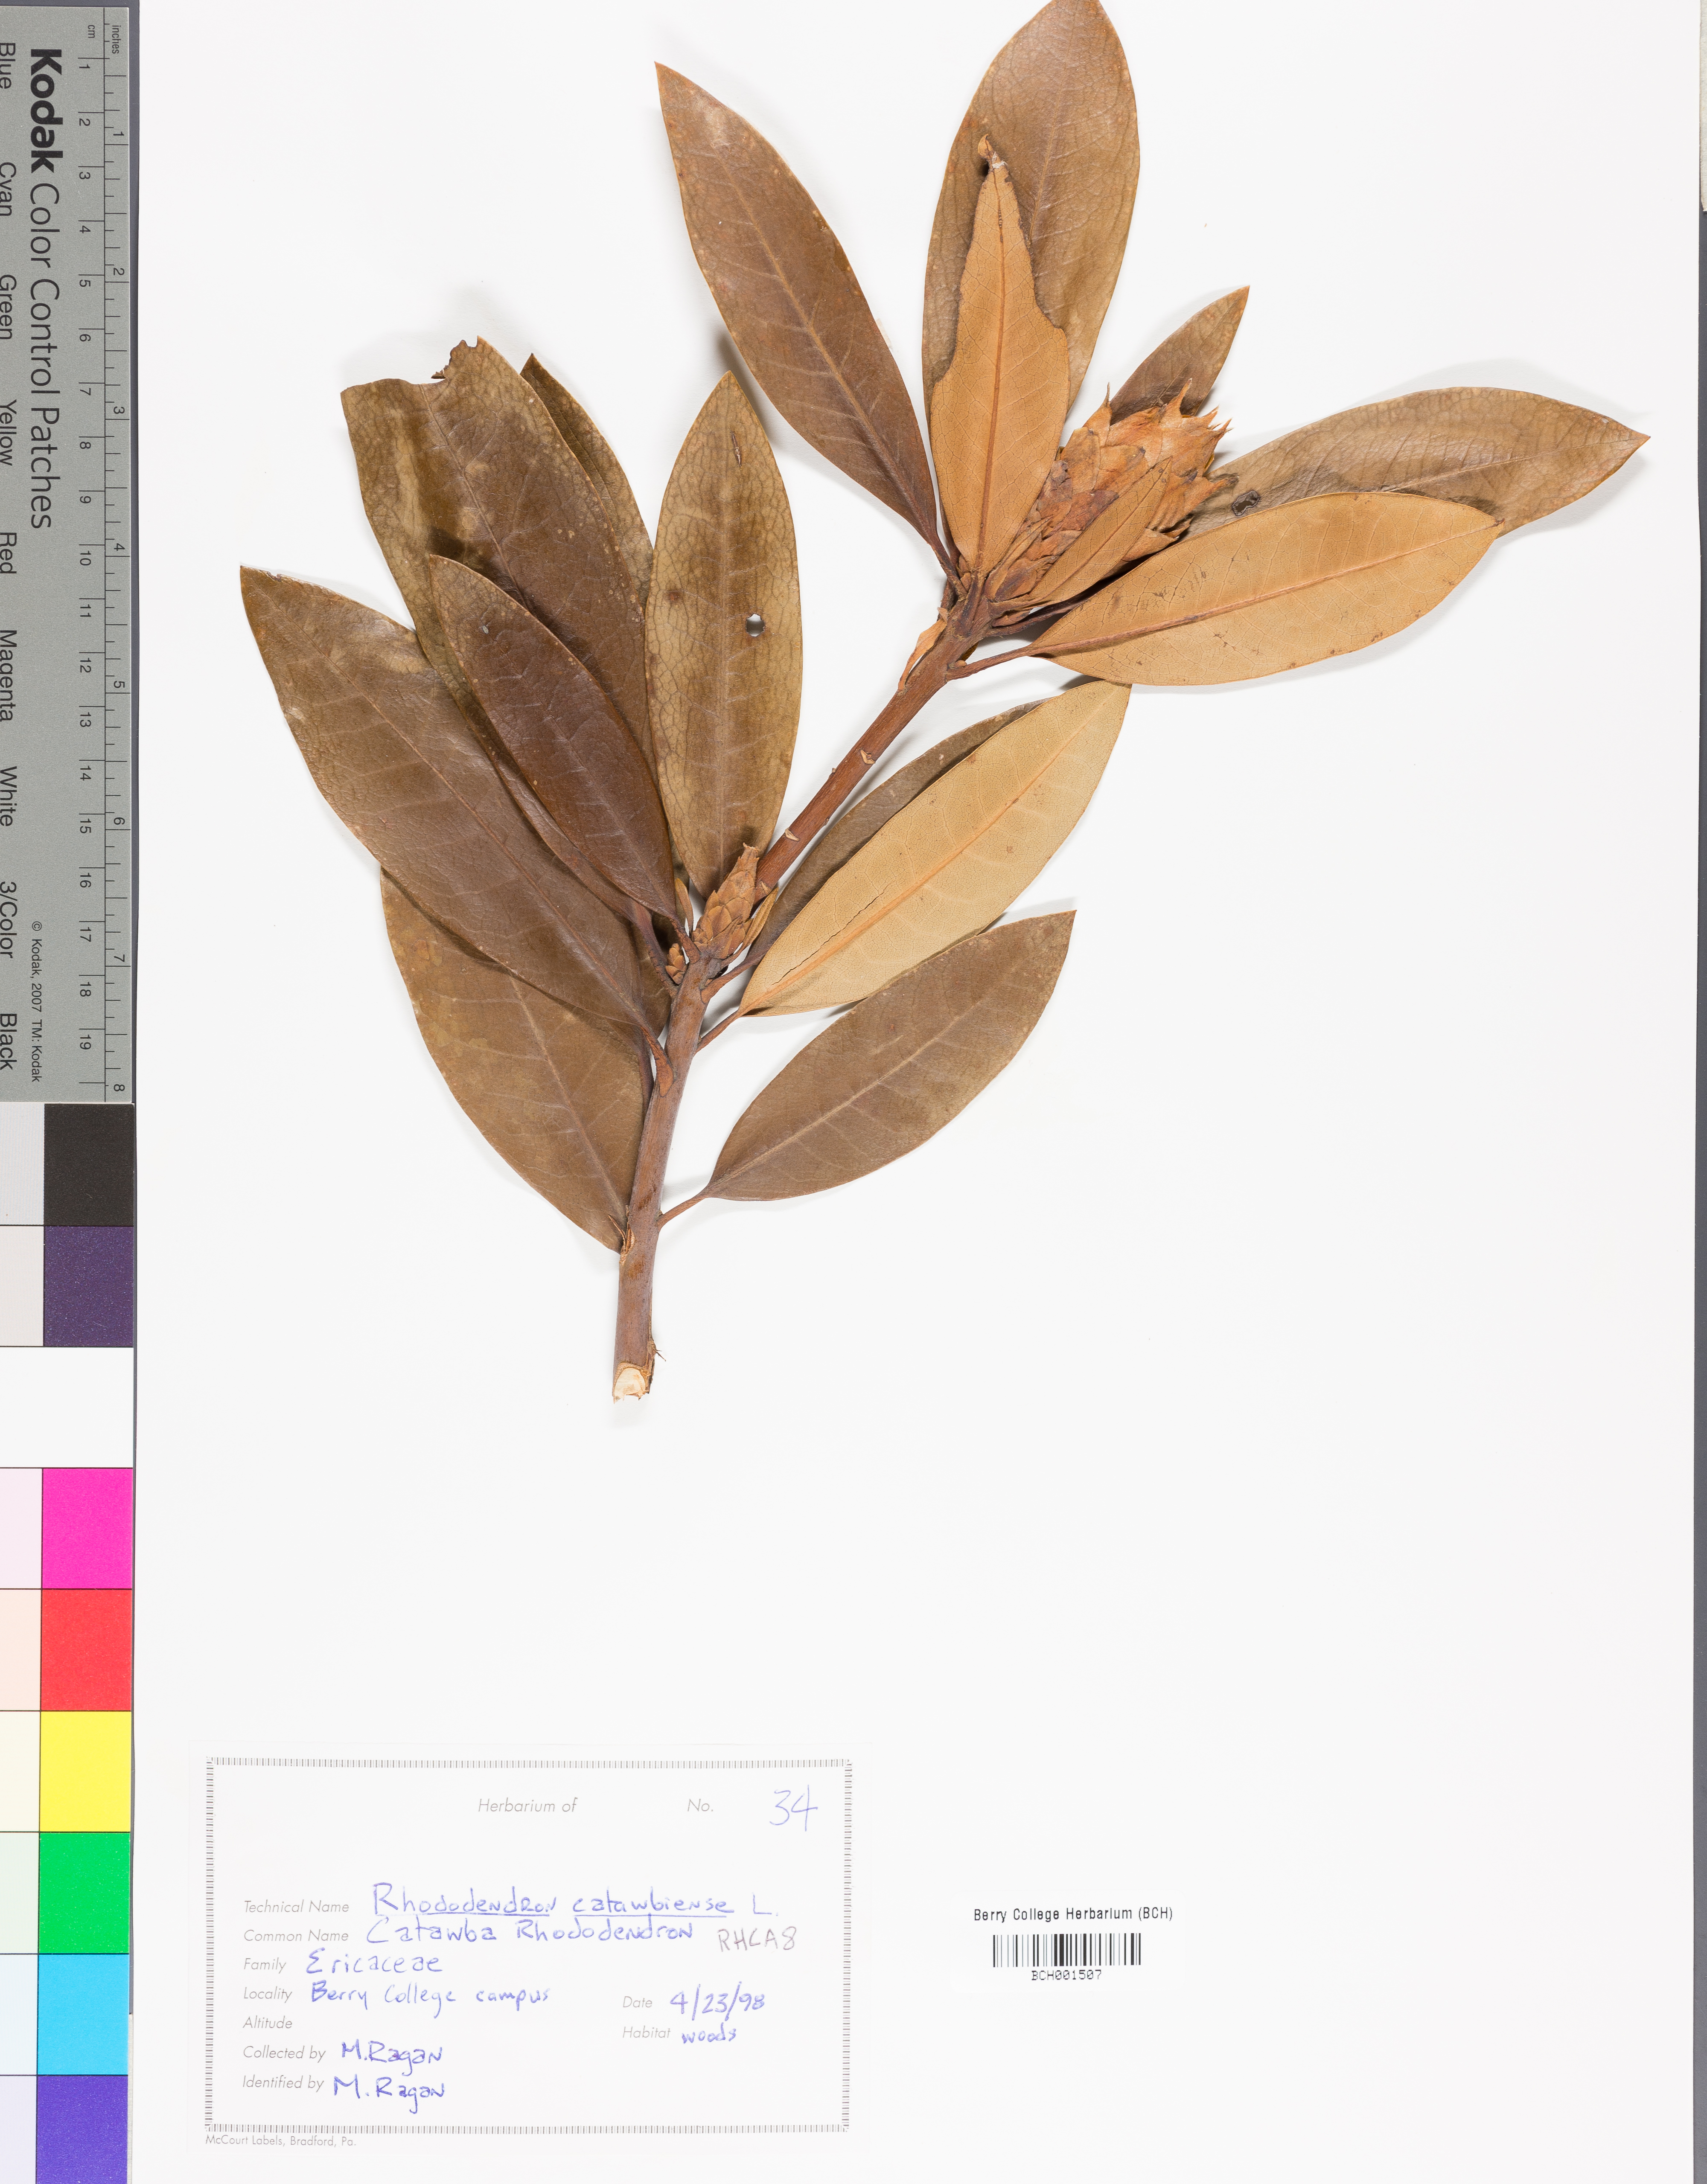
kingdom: Plantae
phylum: Tracheophyta
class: Magnoliopsida
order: Ericales
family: Ericaceae
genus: Rhododendron
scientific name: Rhododendron catawbiense
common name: Catawba rhododendron
